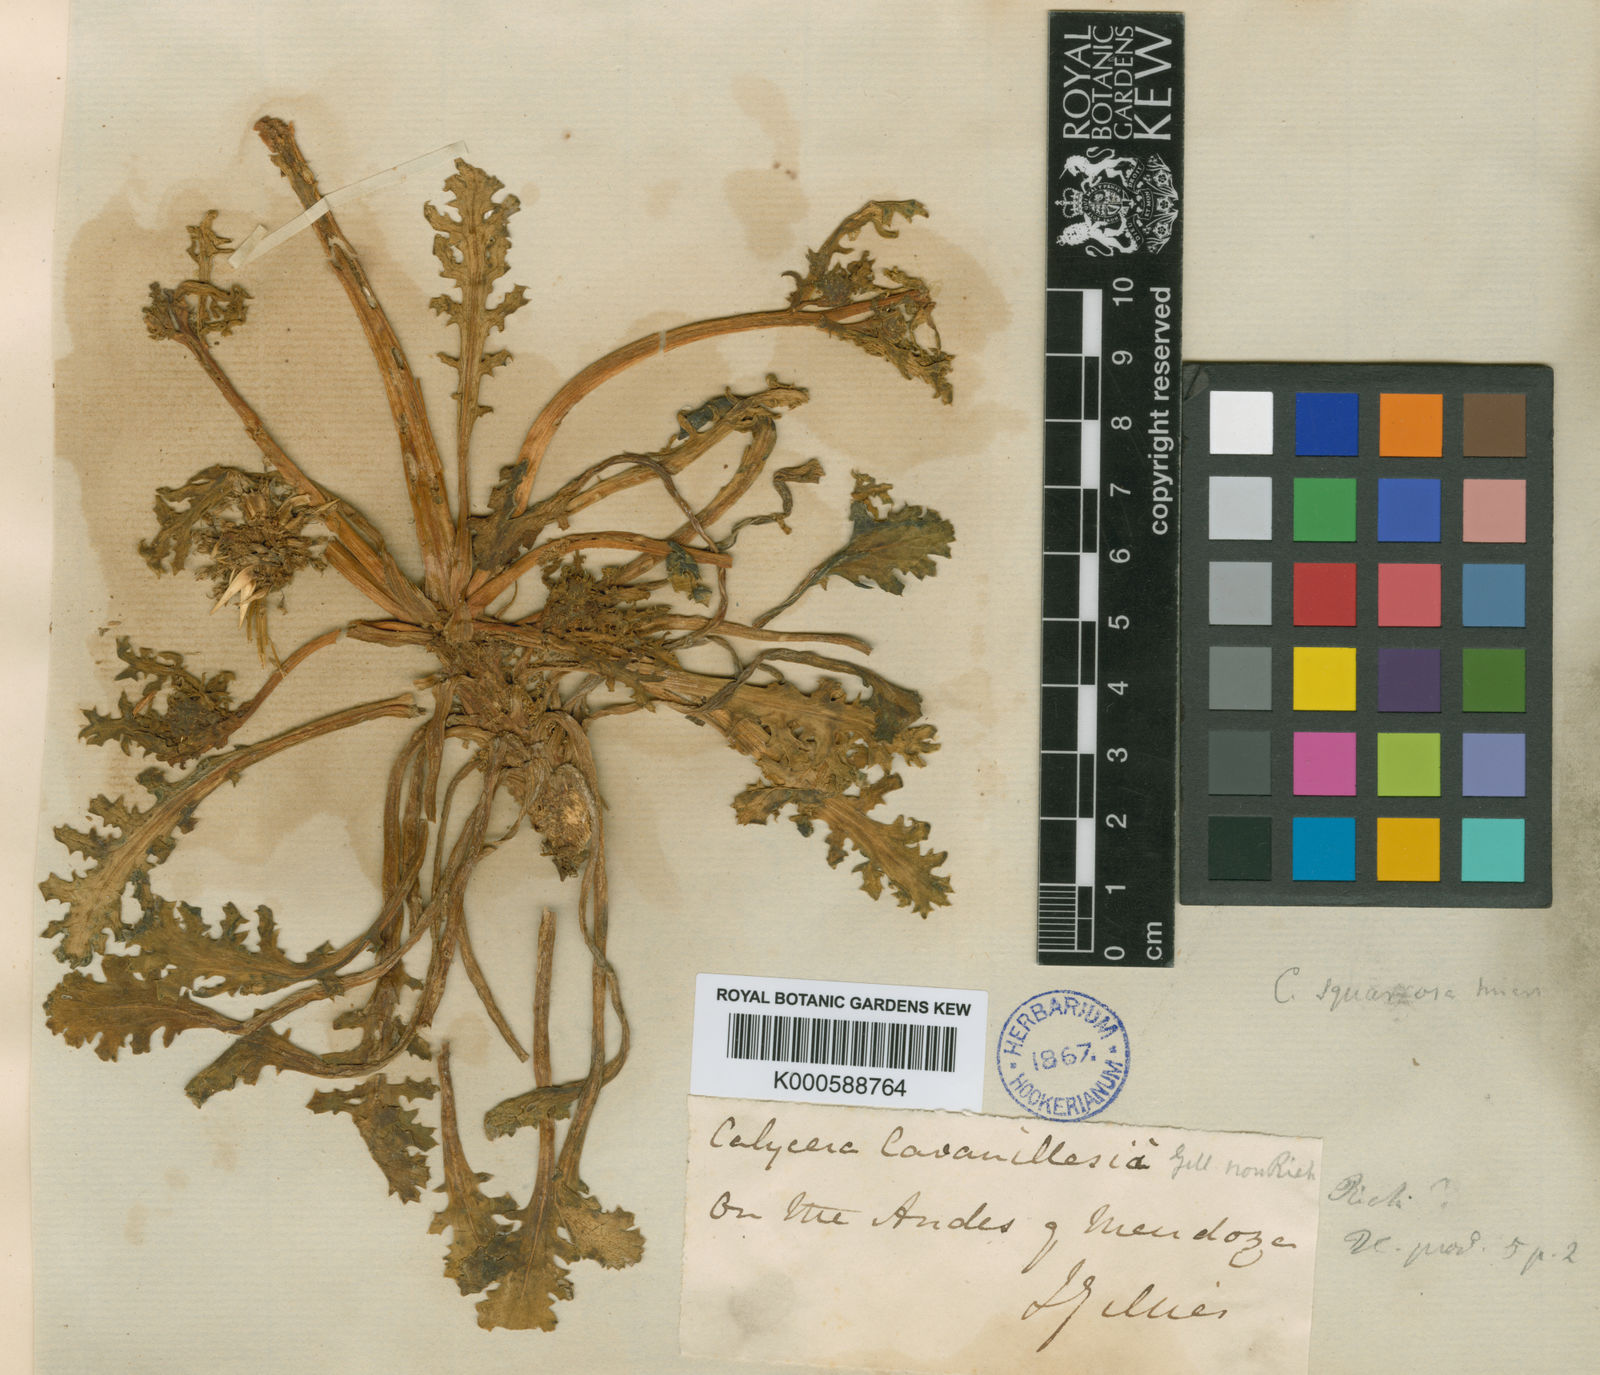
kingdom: Plantae
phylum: Tracheophyta
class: Magnoliopsida
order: Asterales
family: Calyceraceae
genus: Calycera
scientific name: Calycera herbacea
